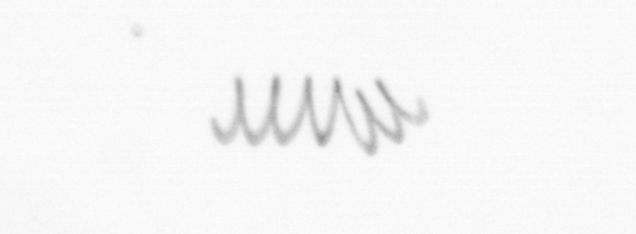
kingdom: Chromista
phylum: Ochrophyta
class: Bacillariophyceae
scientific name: Bacillariophyceae
